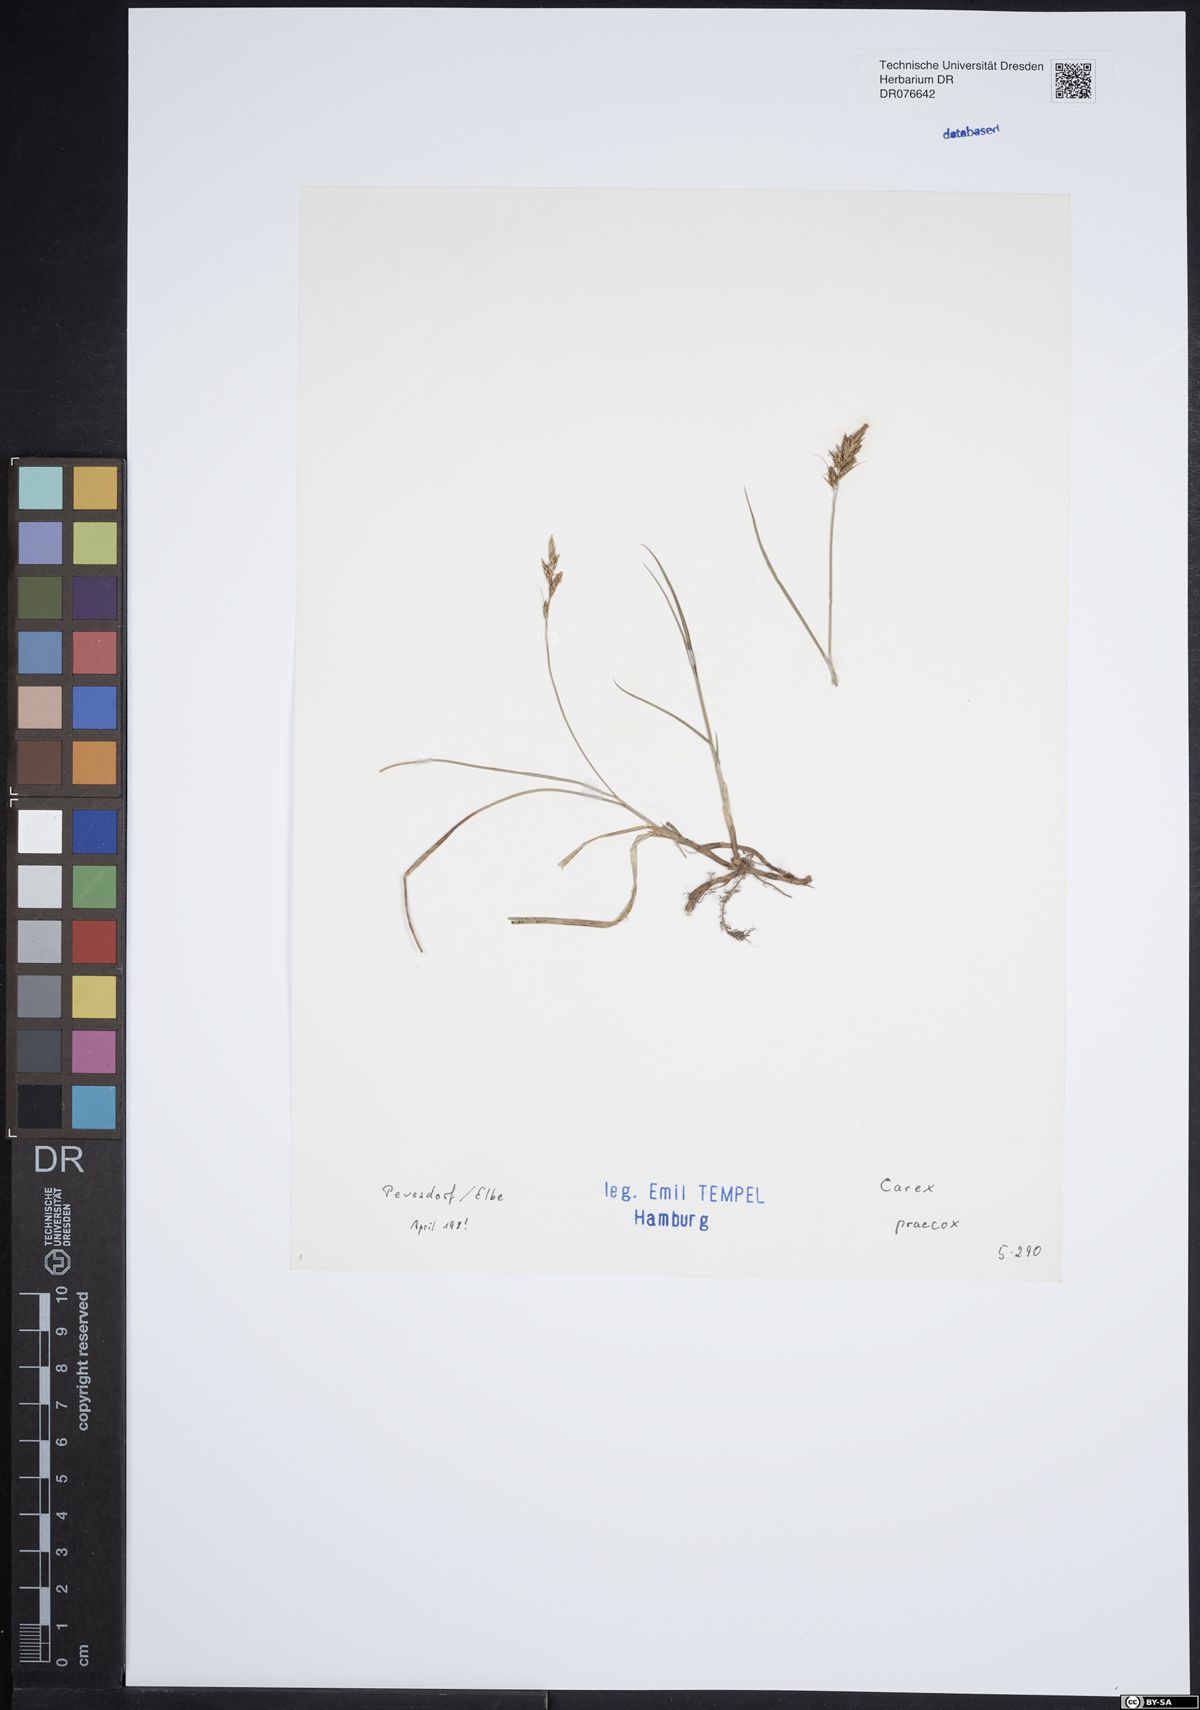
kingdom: Plantae
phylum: Tracheophyta
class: Liliopsida
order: Poales
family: Cyperaceae
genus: Carex
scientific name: Carex praecox
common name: Early sedge
